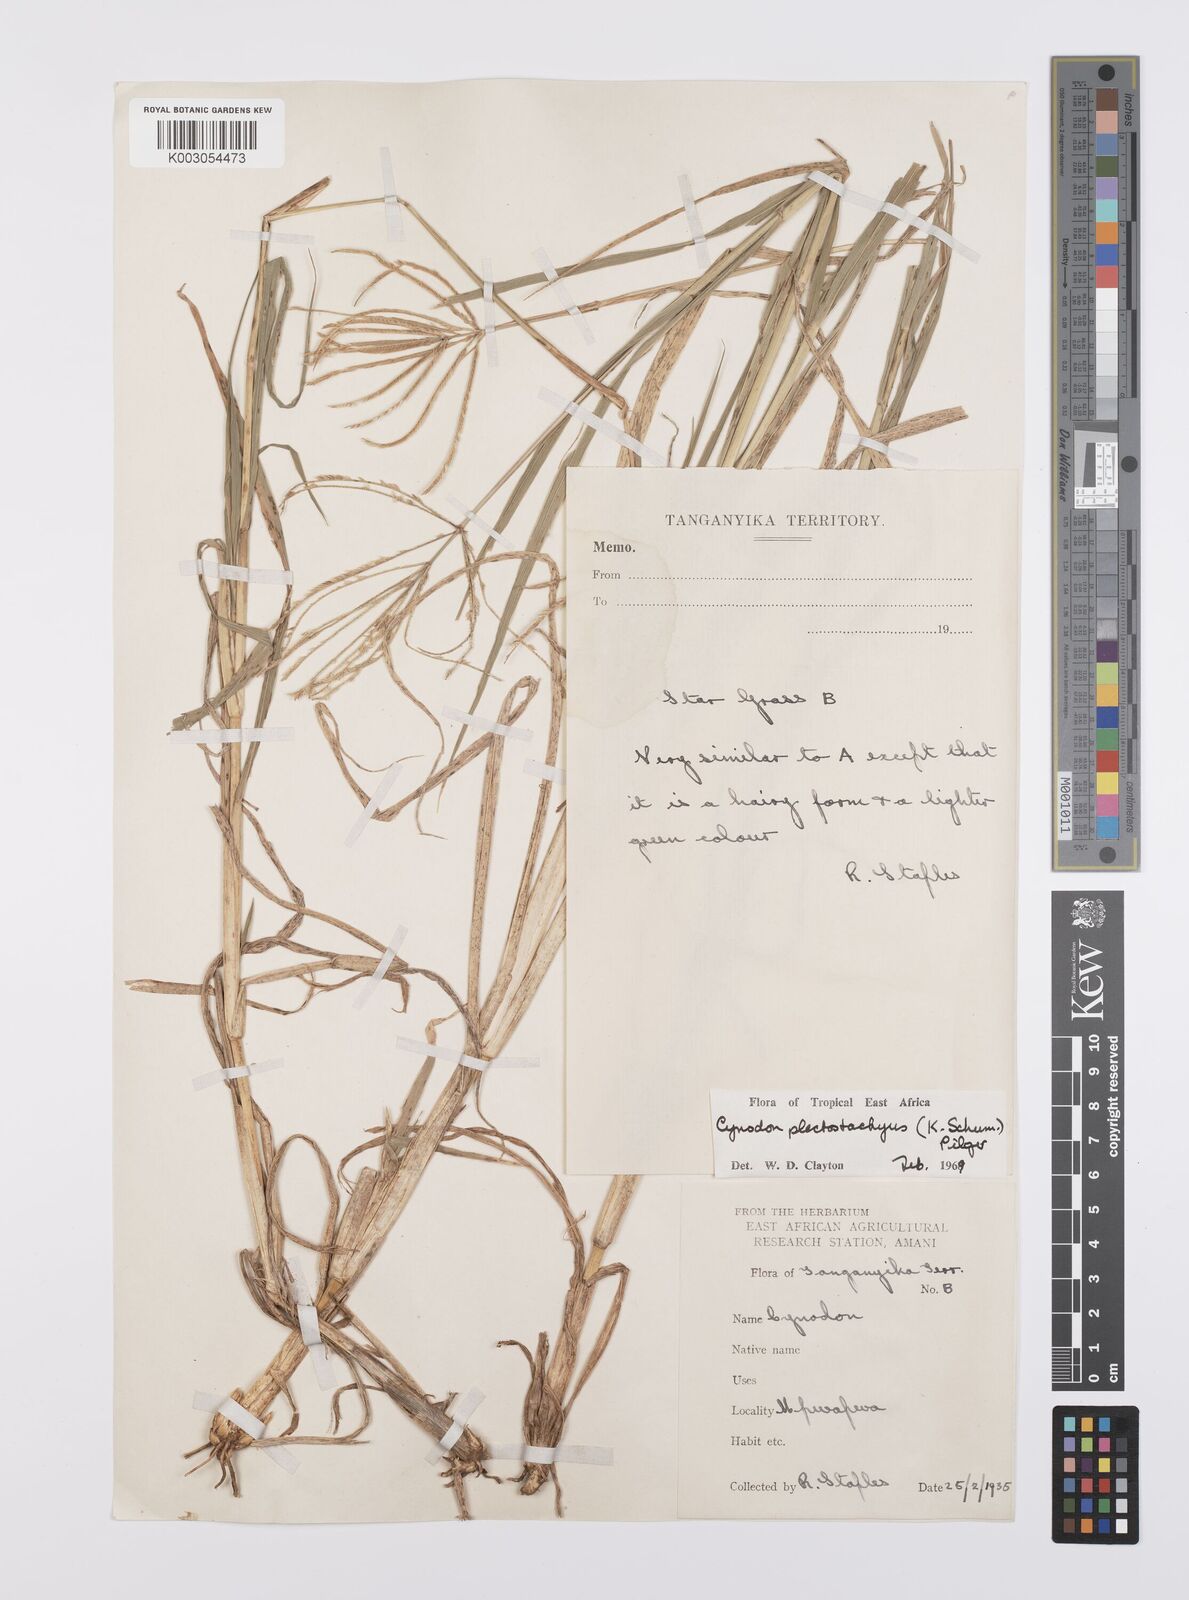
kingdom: Plantae
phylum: Tracheophyta
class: Liliopsida
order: Poales
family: Poaceae
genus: Cynodon
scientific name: Cynodon plectostachyus
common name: Stargrass
